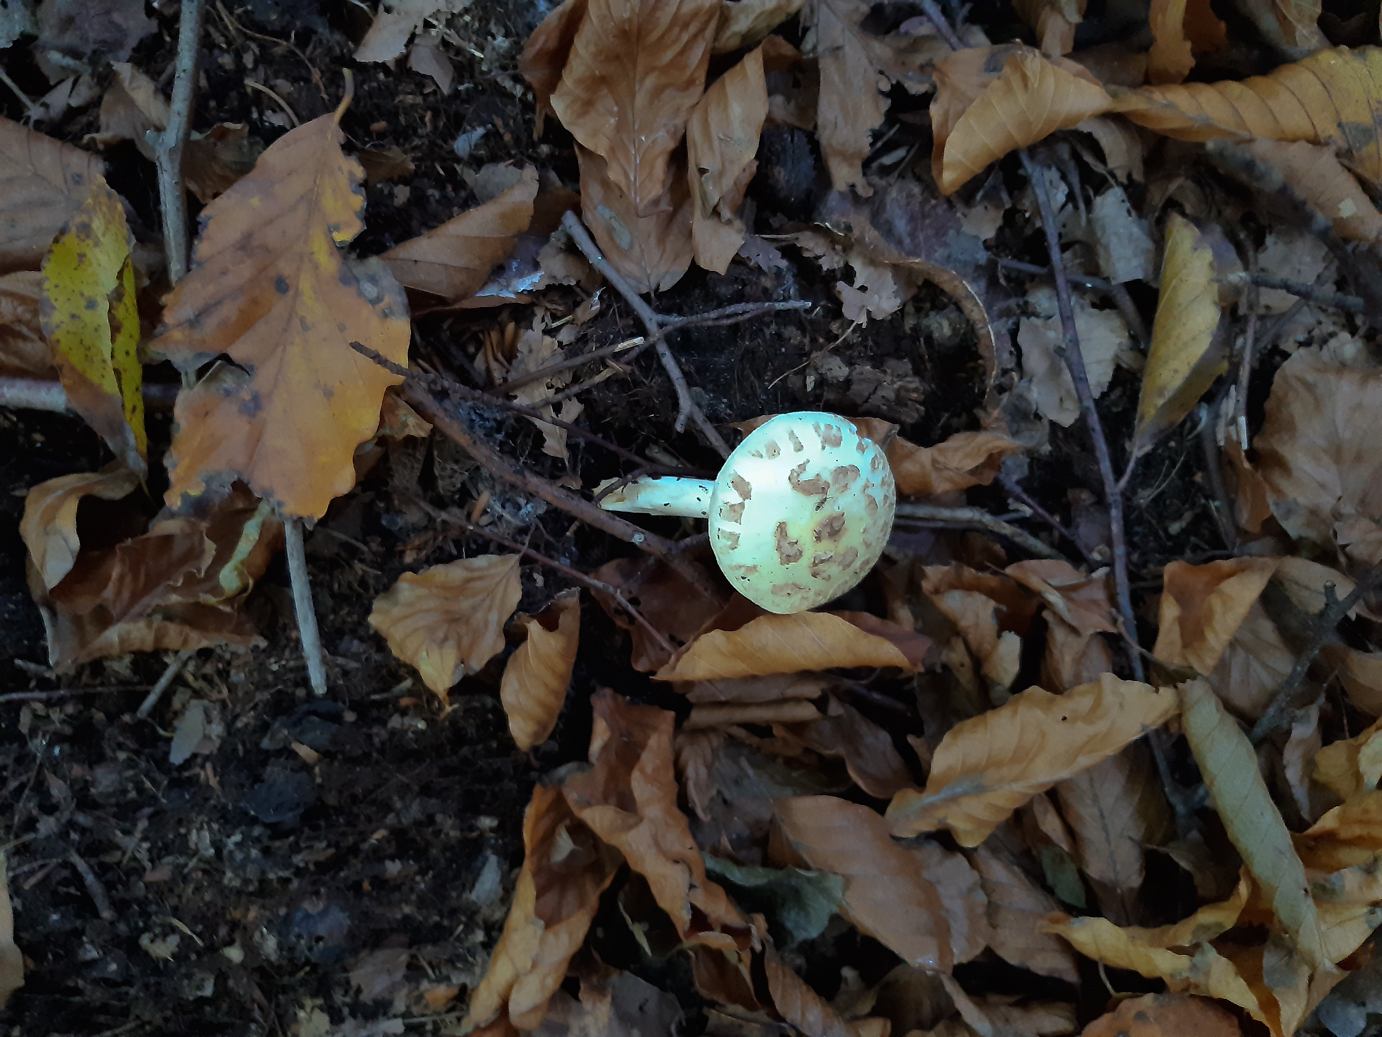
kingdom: Fungi
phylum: Basidiomycota
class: Agaricomycetes
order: Agaricales
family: Amanitaceae
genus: Amanita
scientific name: Amanita citrina
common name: kugleknoldet fluesvamp
